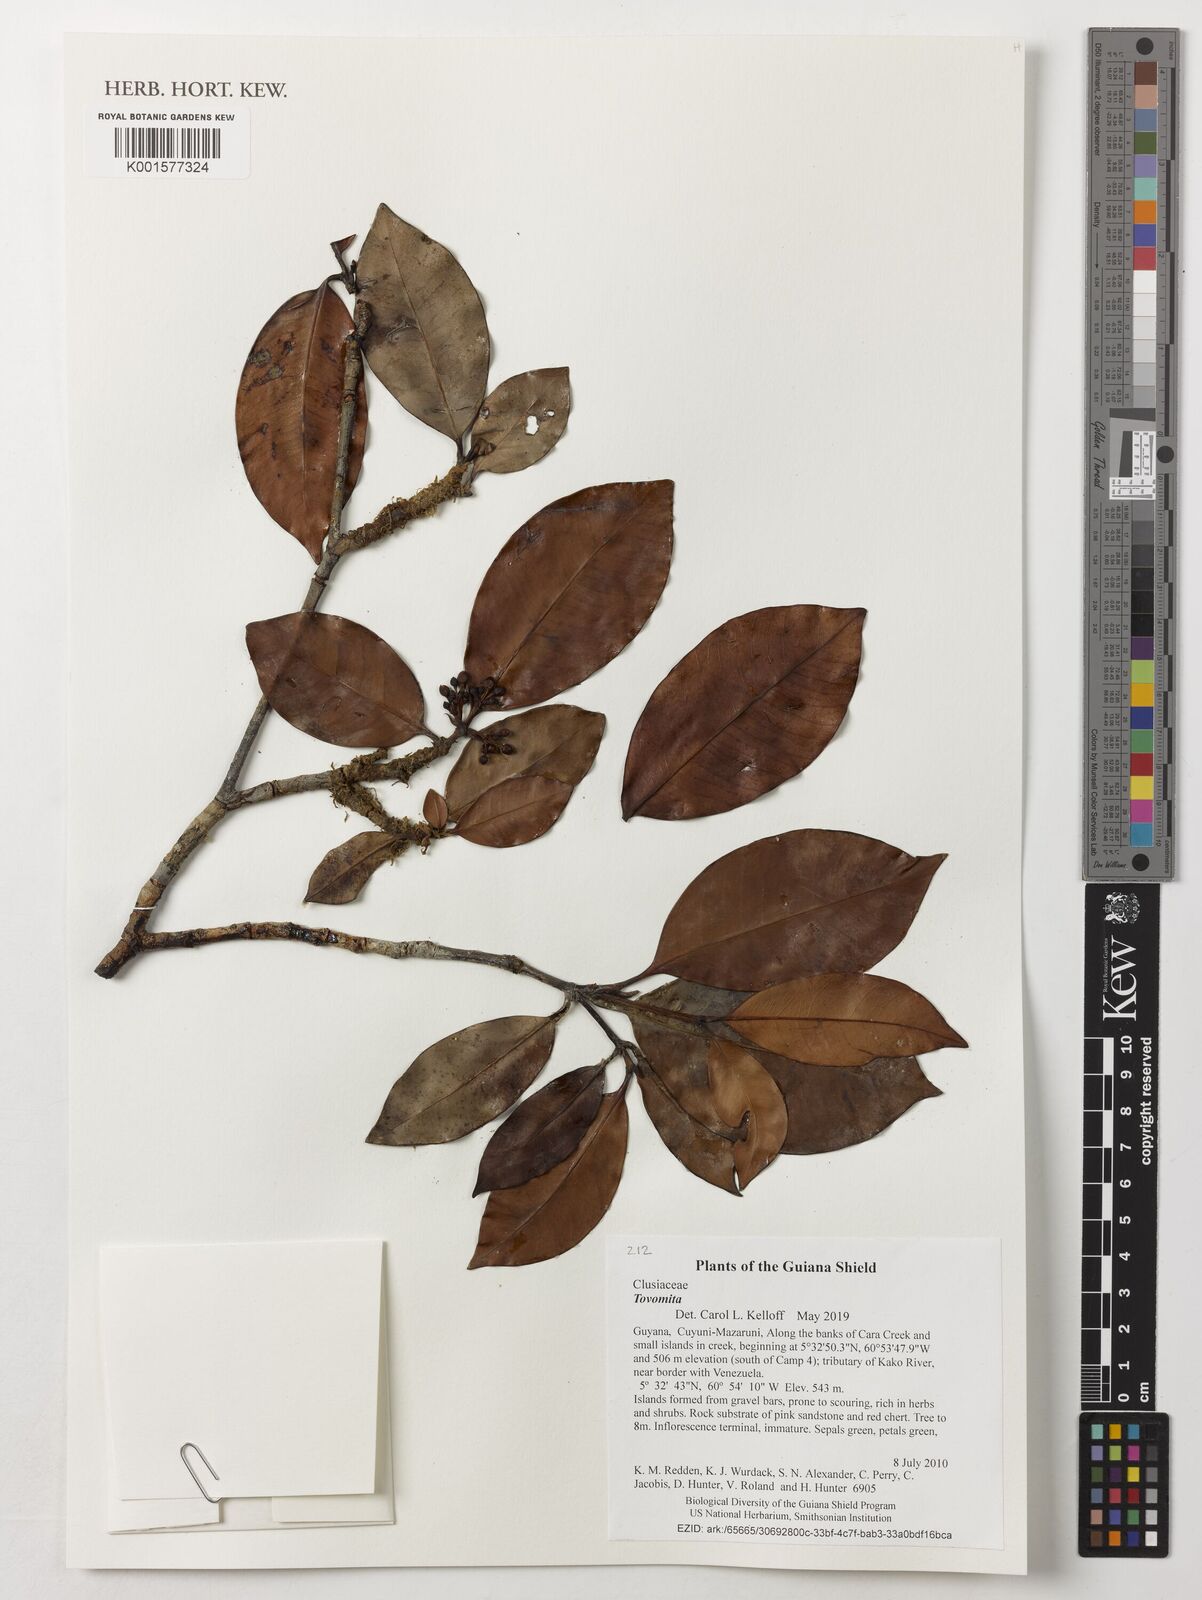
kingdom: Plantae
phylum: Tracheophyta
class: Magnoliopsida
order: Malpighiales
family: Clusiaceae
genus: Tovomita
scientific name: Tovomita
